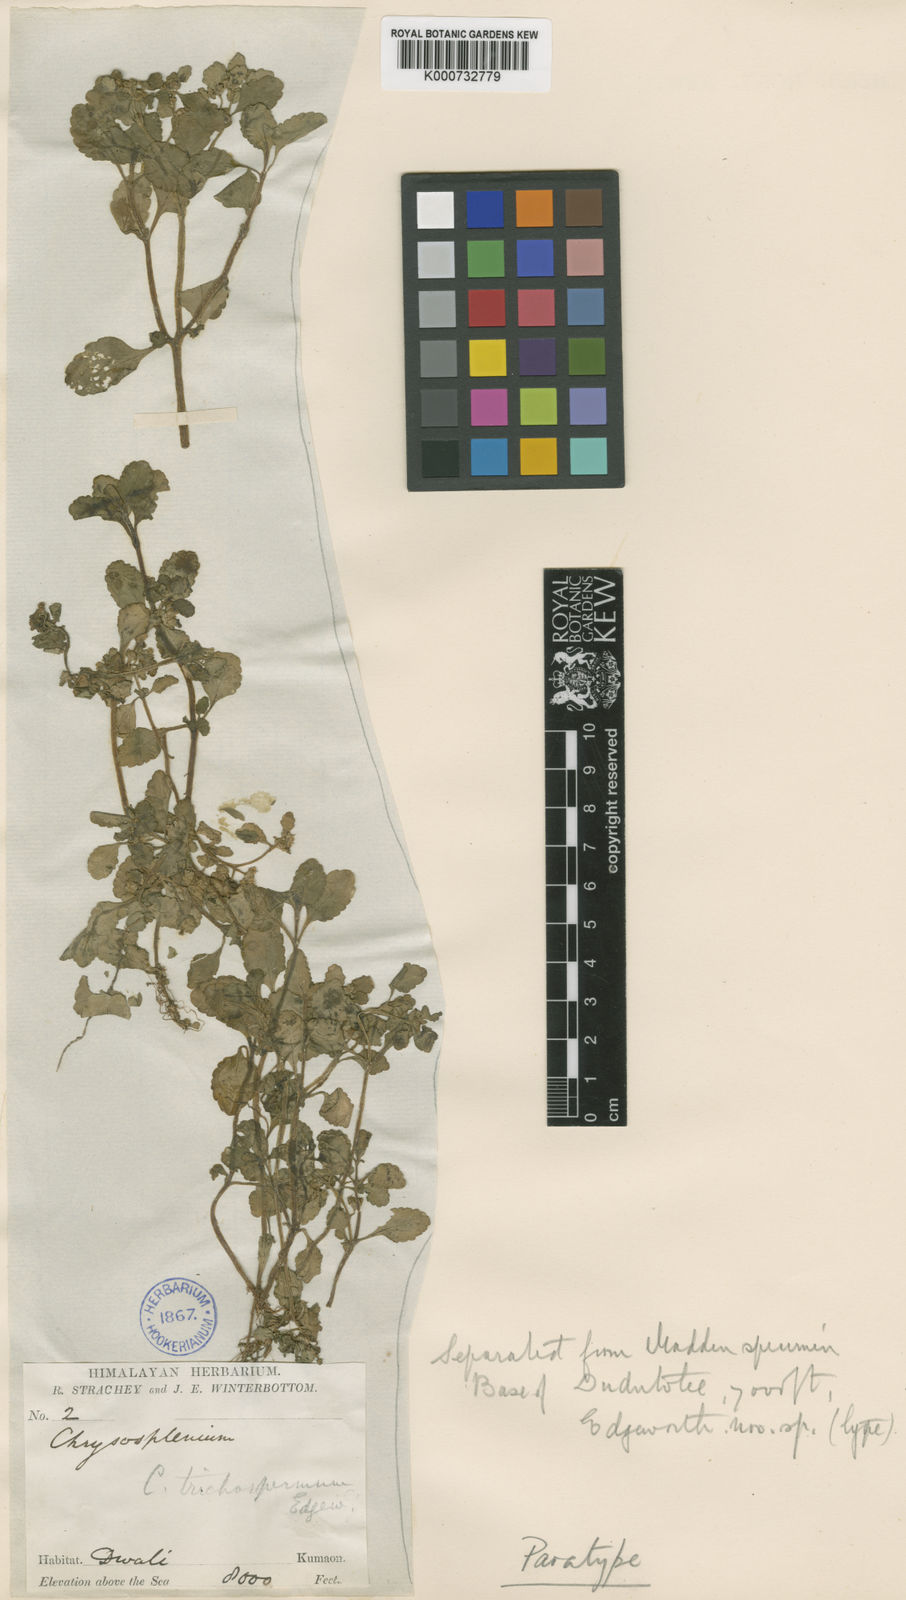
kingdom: Plantae
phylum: Tracheophyta
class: Magnoliopsida
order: Saxifragales
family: Saxifragaceae
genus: Chrysosplenium
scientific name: Chrysosplenium trichospermum
